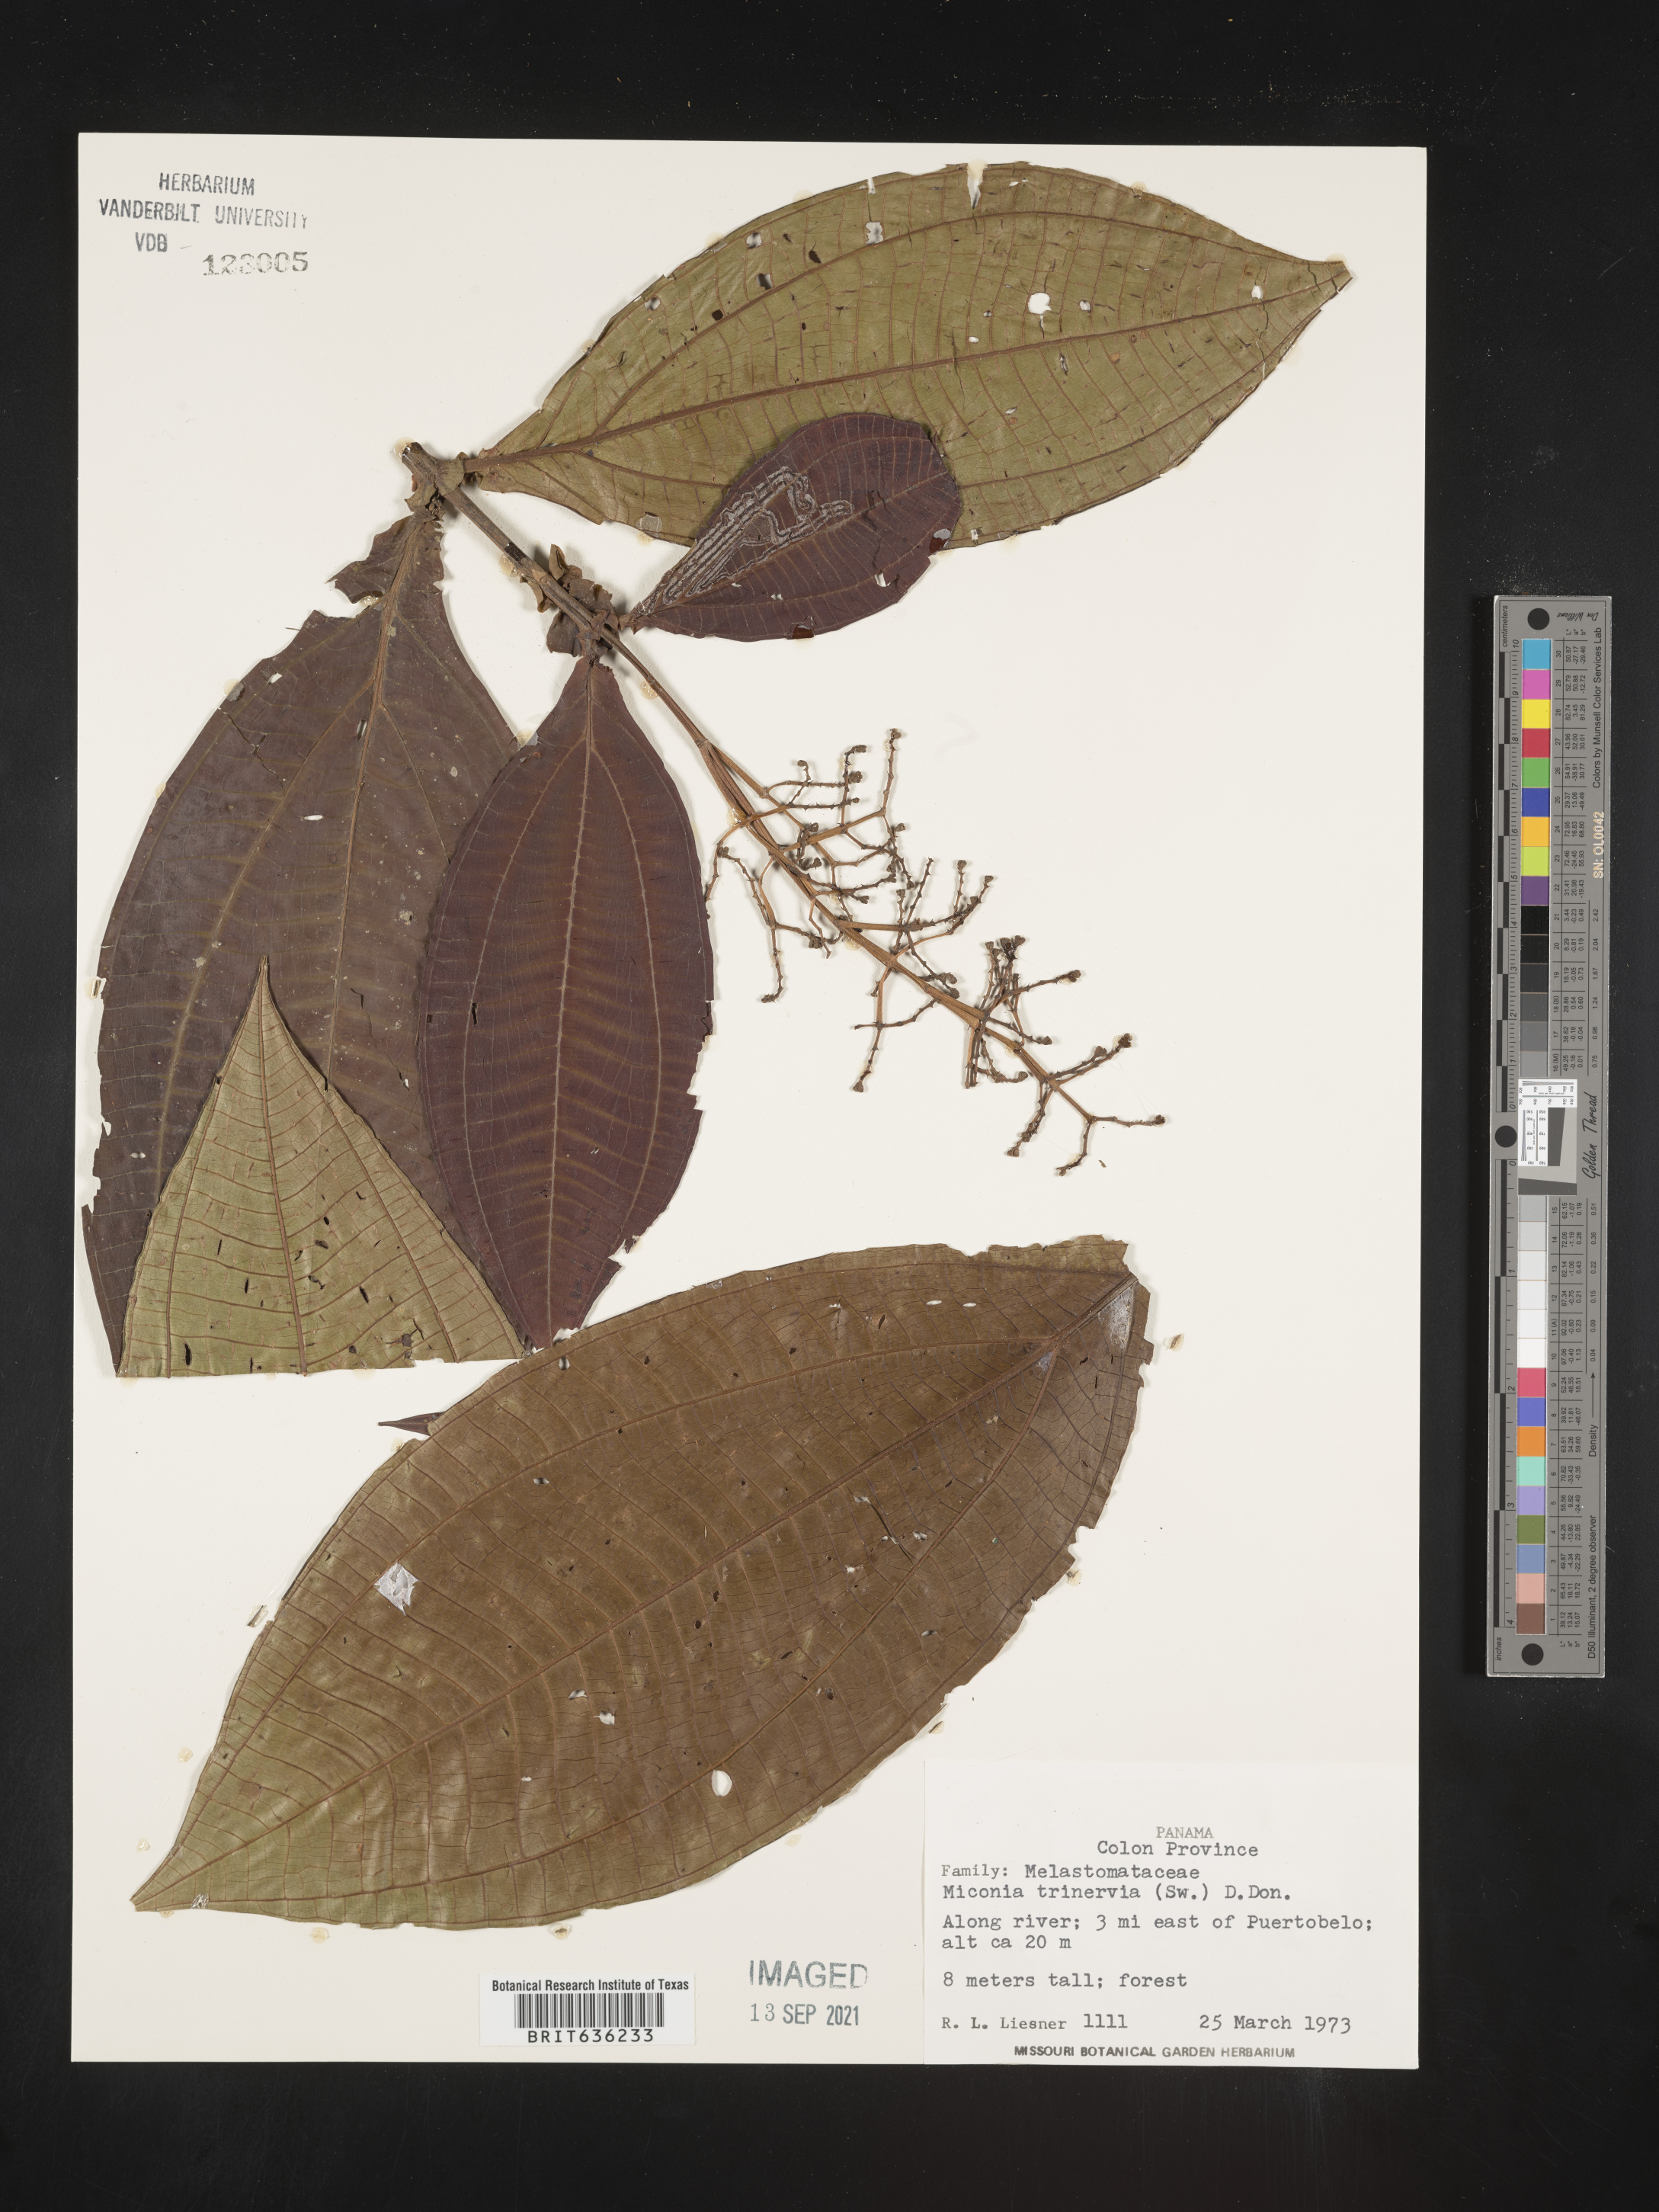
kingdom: Plantae
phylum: Tracheophyta
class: Magnoliopsida
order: Myrtales
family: Melastomataceae
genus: Miconia
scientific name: Miconia
